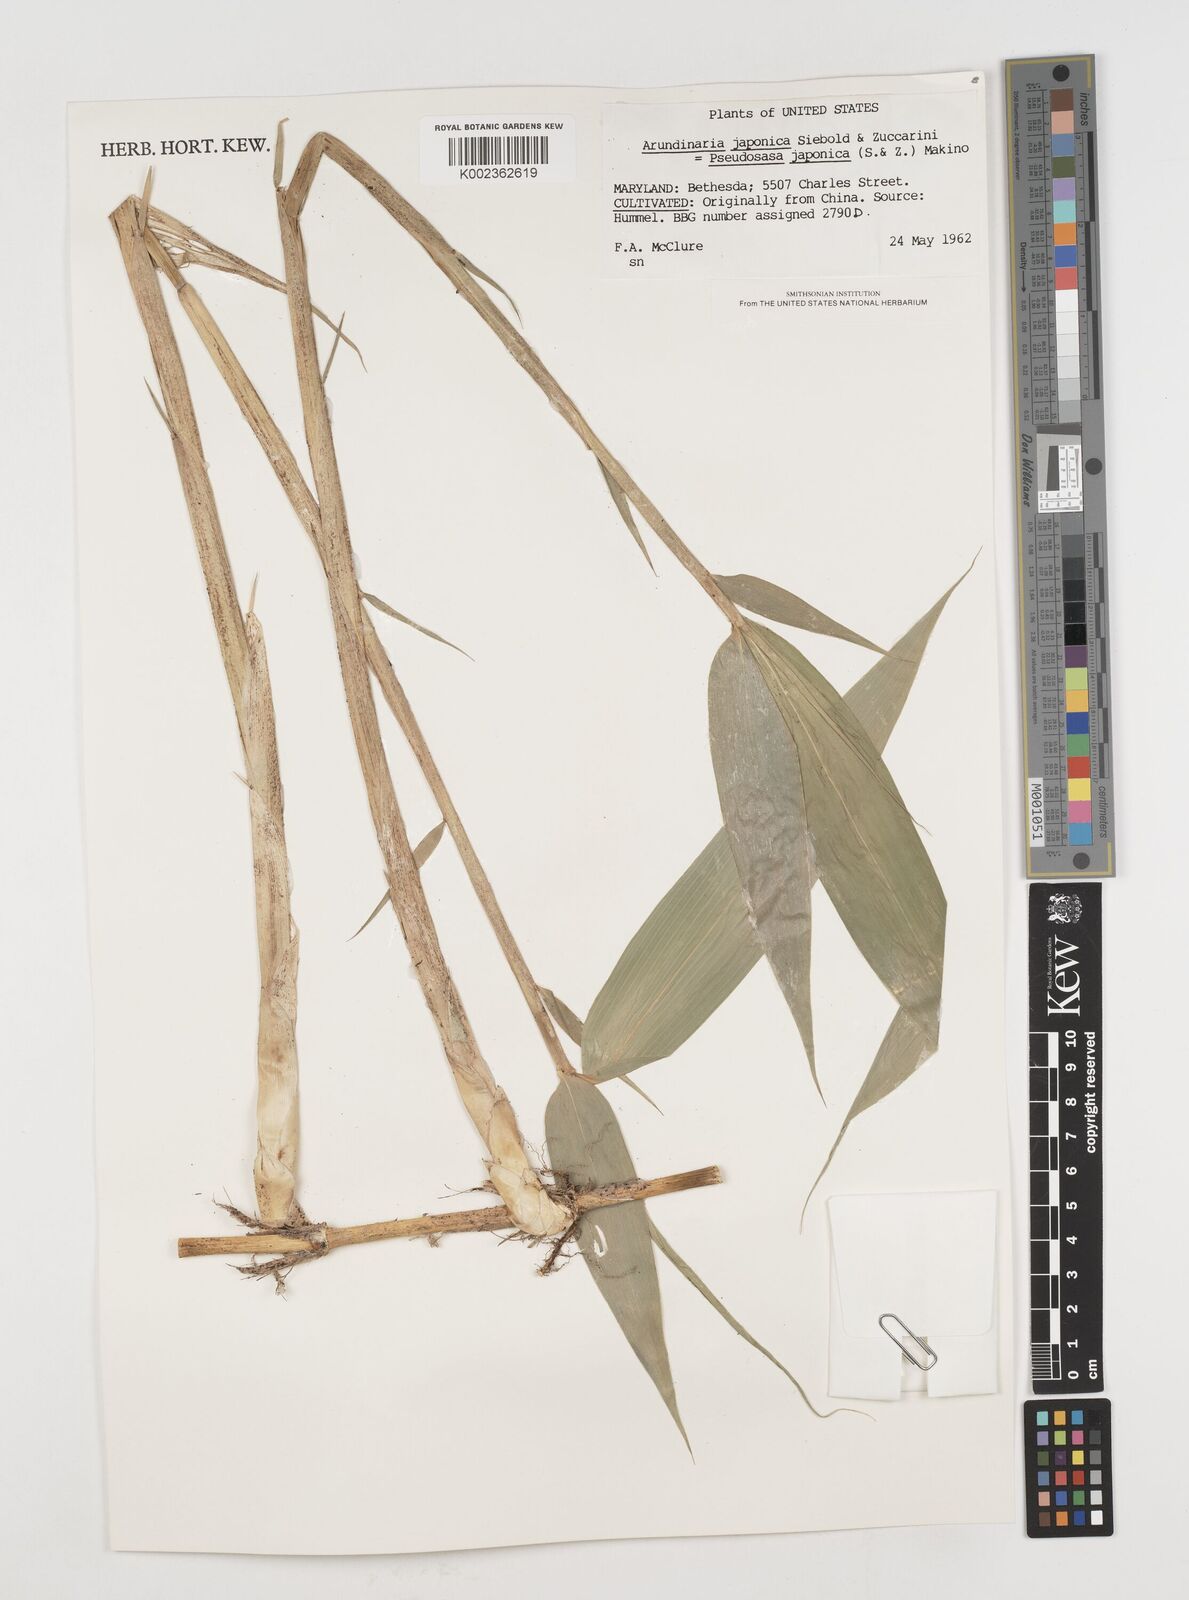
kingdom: Plantae
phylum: Tracheophyta
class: Liliopsida
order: Poales
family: Poaceae
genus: Pseudosasa
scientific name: Pseudosasa japonica
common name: Arrow bamboo
